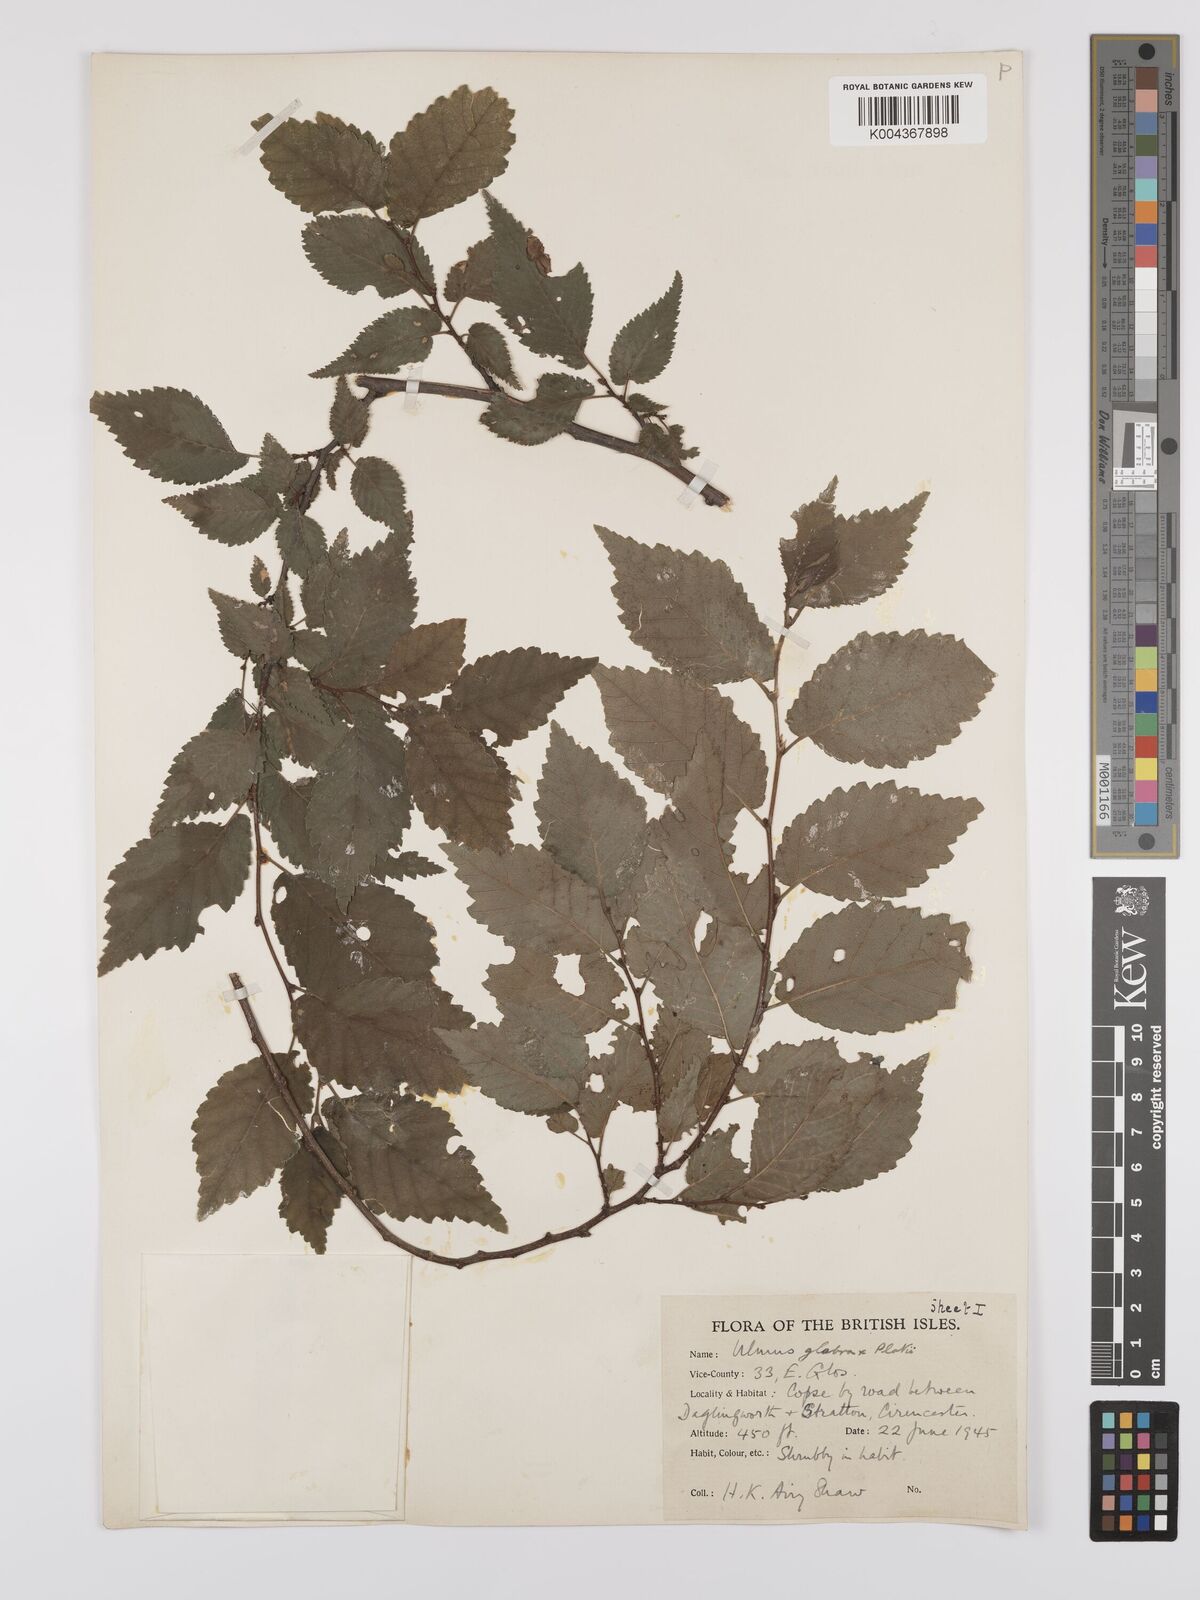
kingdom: Plantae
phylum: Tracheophyta
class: Magnoliopsida
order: Rosales
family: Ulmaceae
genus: Ulmus
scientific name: Ulmus glabra
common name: Wych elm
